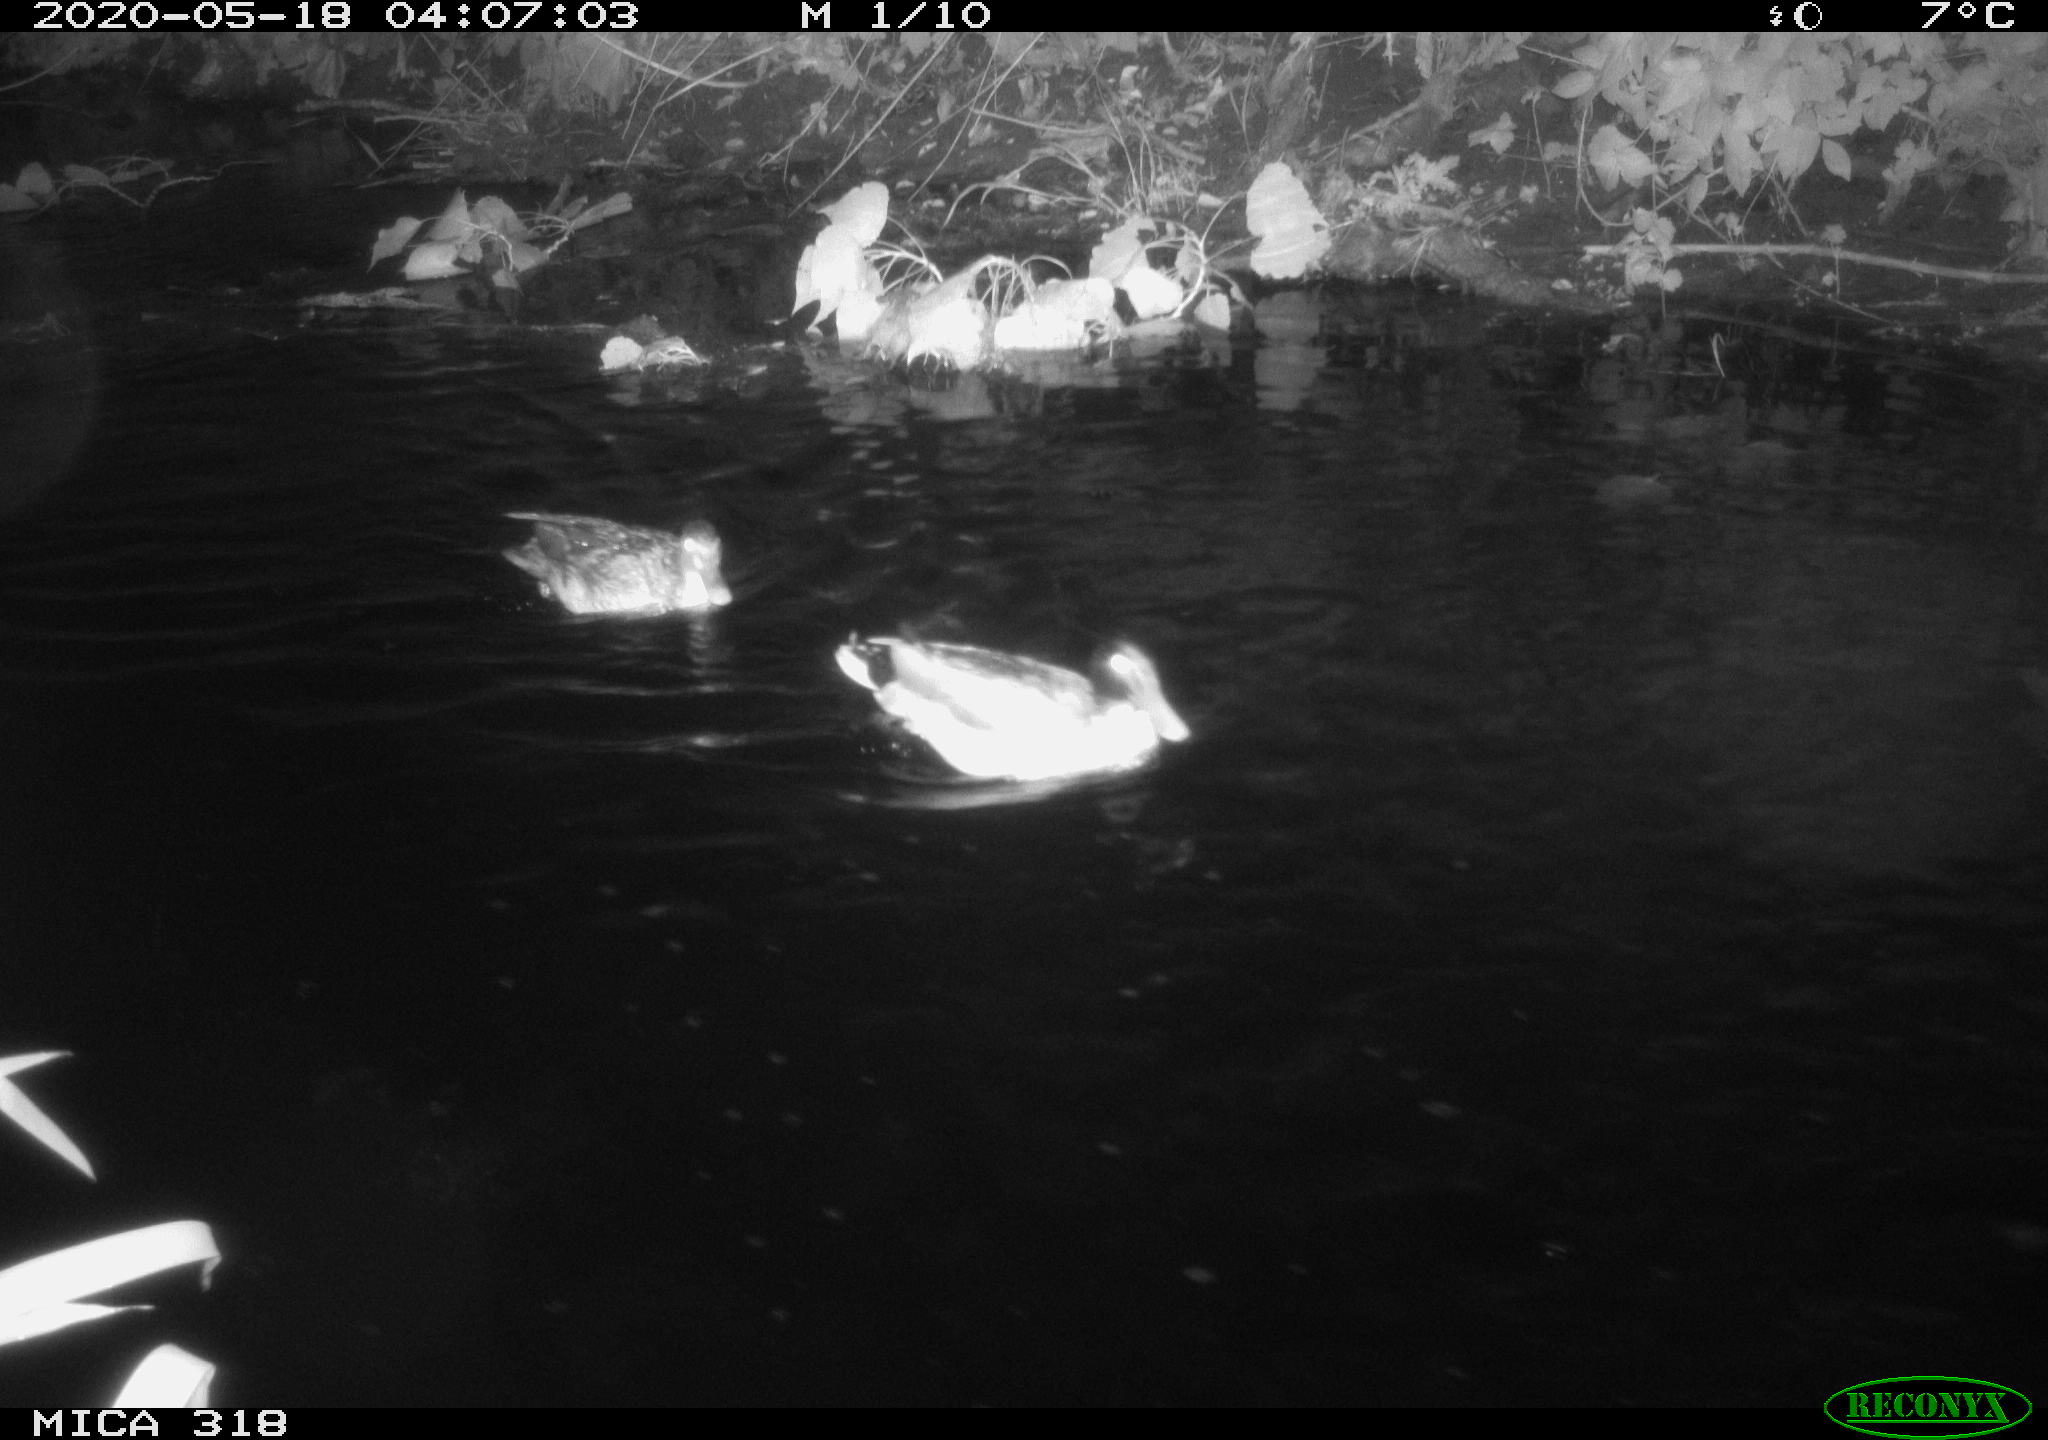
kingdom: Animalia
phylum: Chordata
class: Aves
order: Anseriformes
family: Anatidae
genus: Anas
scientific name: Anas platyrhynchos
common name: Mallard
